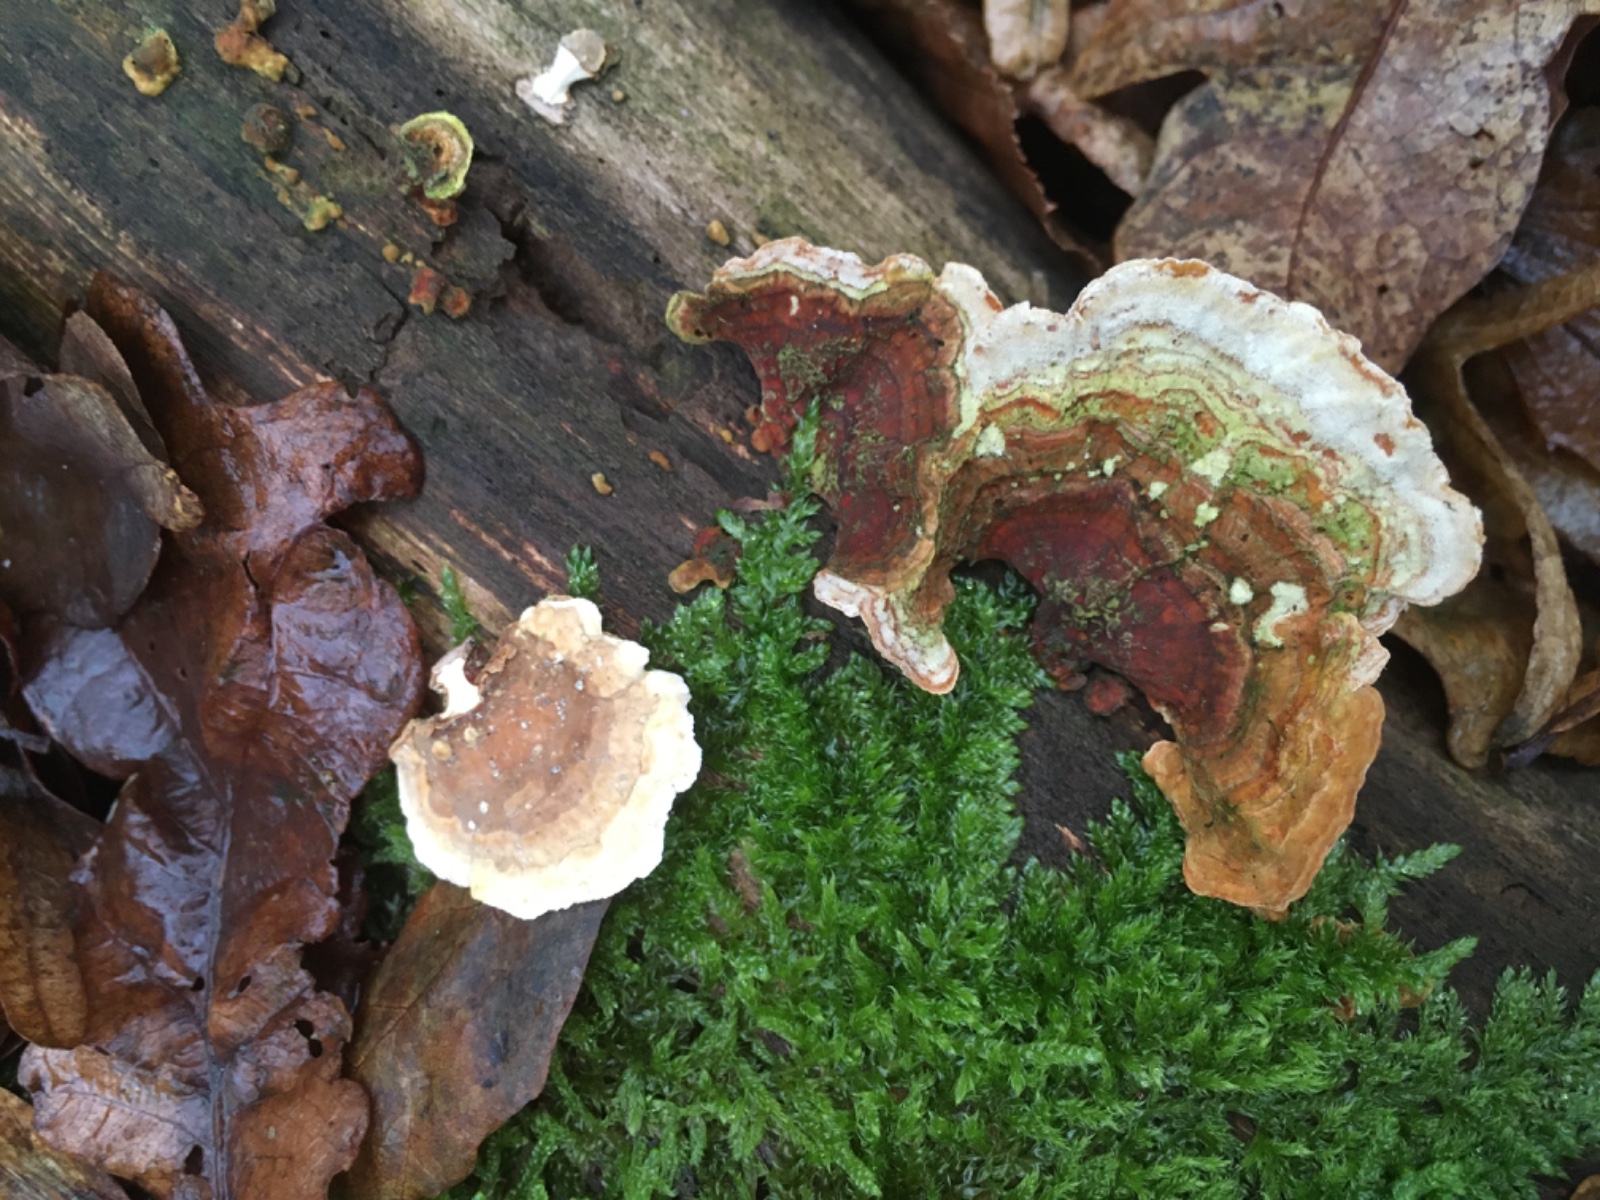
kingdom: Fungi
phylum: Basidiomycota
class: Agaricomycetes
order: Russulales
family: Stereaceae
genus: Stereum
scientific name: Stereum subtomentosum
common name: smuk lædersvamp
